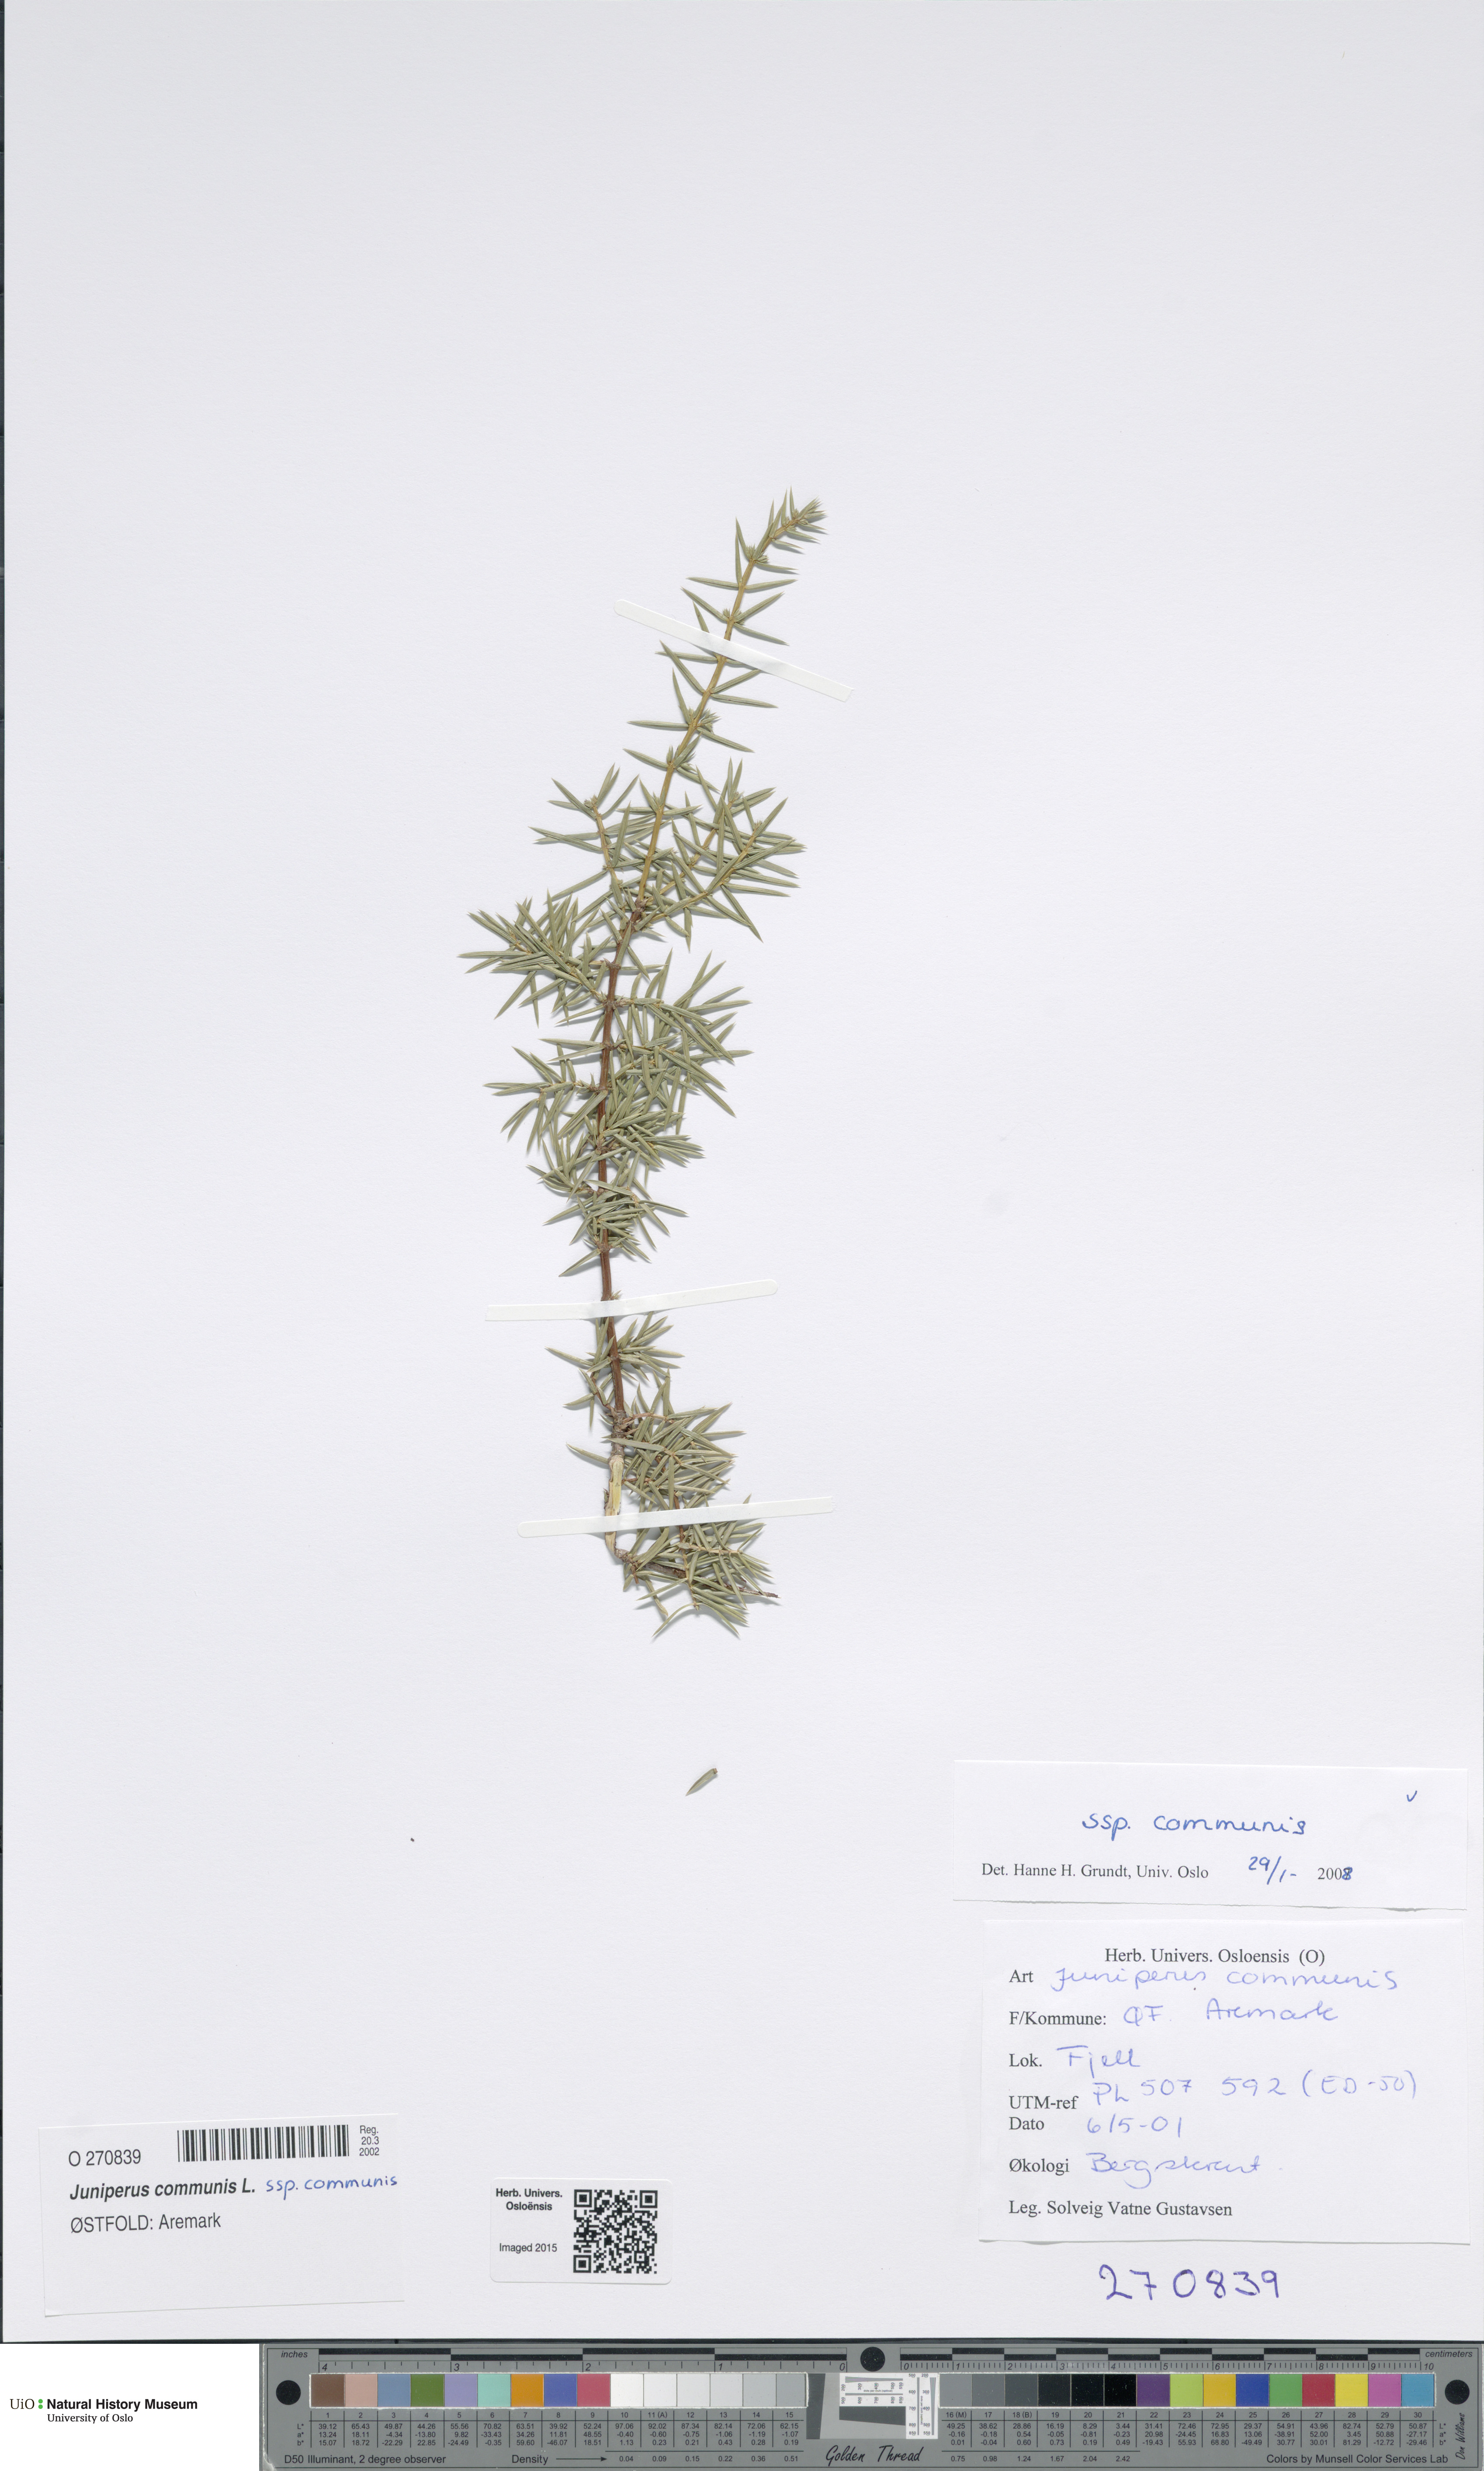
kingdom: Plantae
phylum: Tracheophyta
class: Pinopsida
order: Pinales
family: Cupressaceae
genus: Juniperus
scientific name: Juniperus communis
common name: Common juniper
